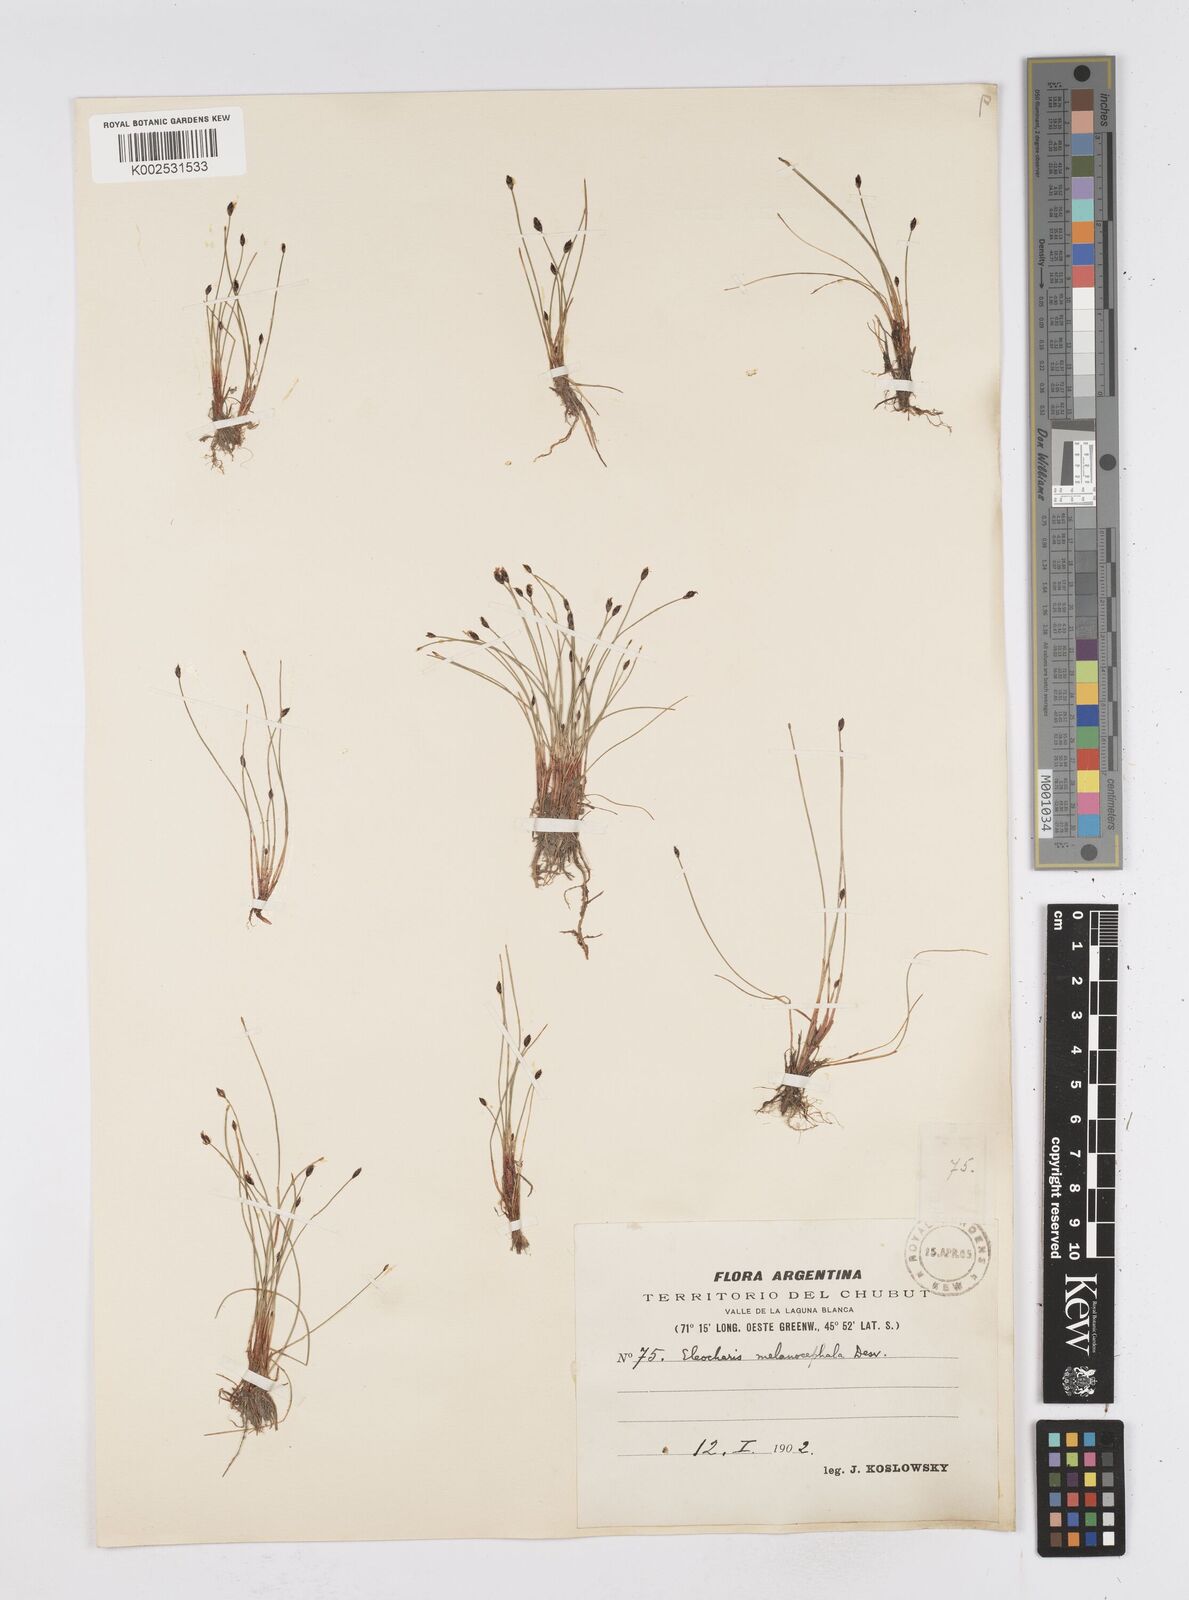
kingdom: Plantae
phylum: Tracheophyta
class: Liliopsida
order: Poales
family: Cyperaceae
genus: Eleocharis
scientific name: Eleocharis albibracteata
